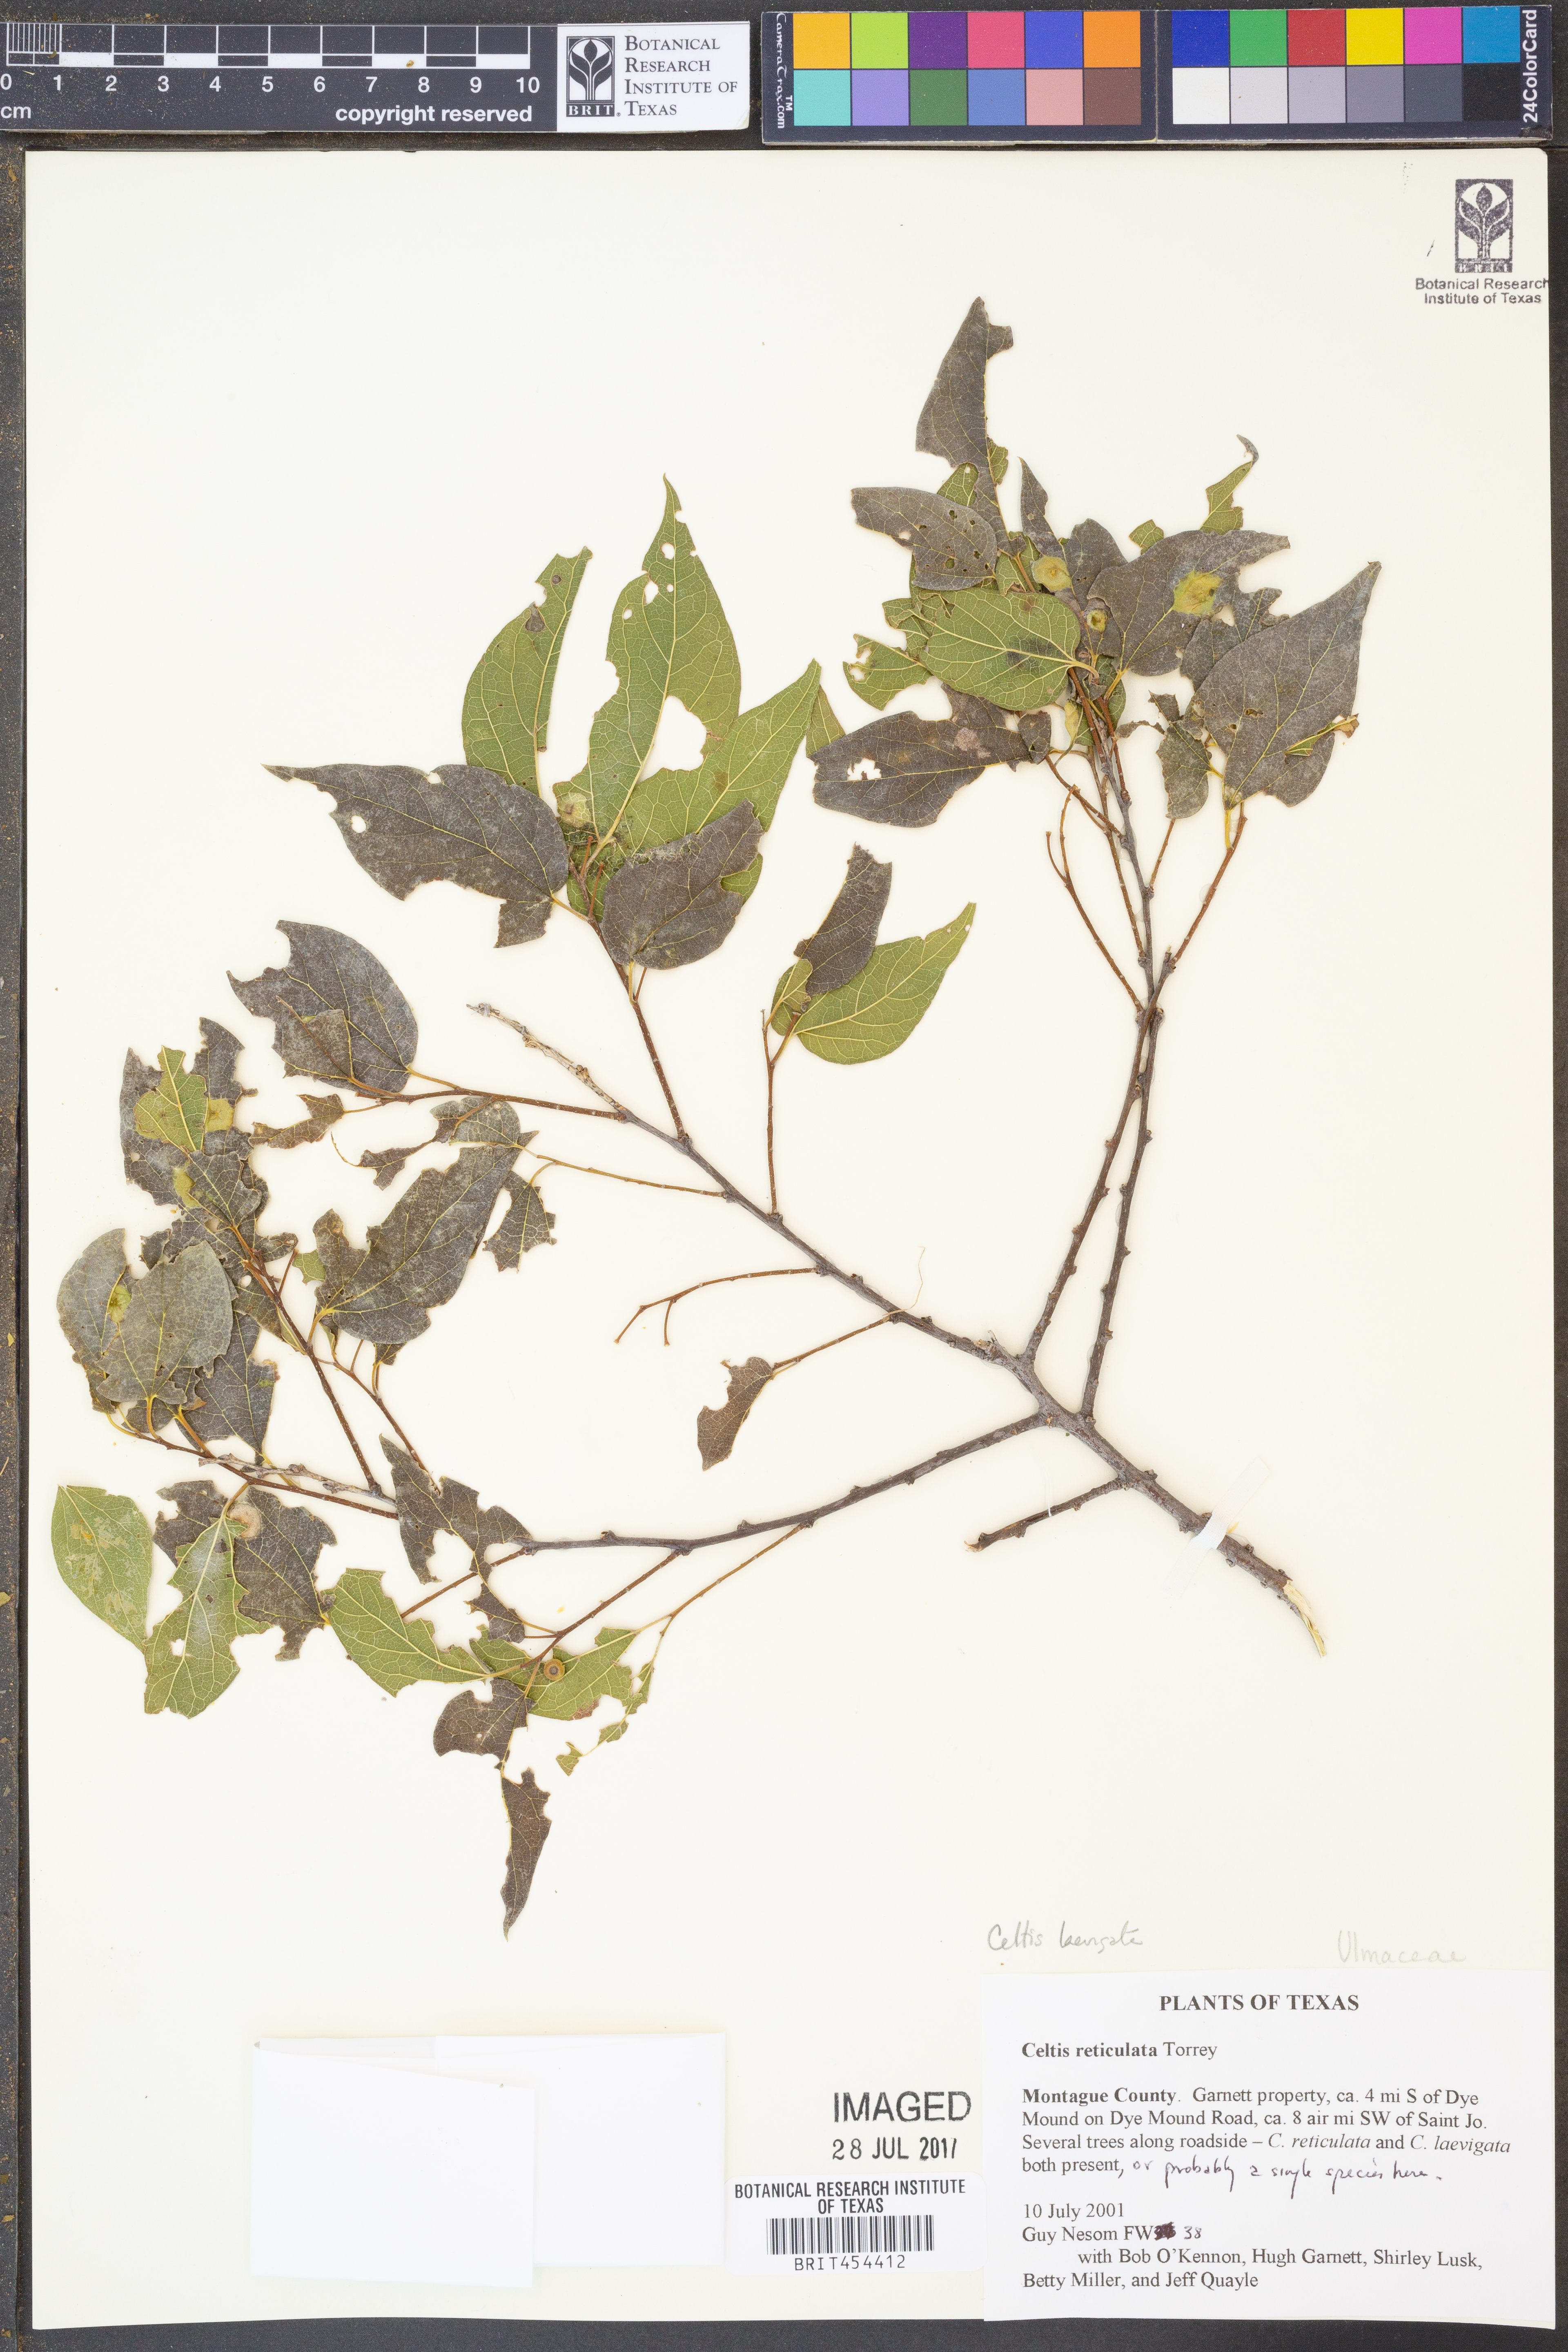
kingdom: Plantae
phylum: Tracheophyta
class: Magnoliopsida
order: Rosales
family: Cannabaceae
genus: Celtis
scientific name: Celtis laevigata
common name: Sugarberry
